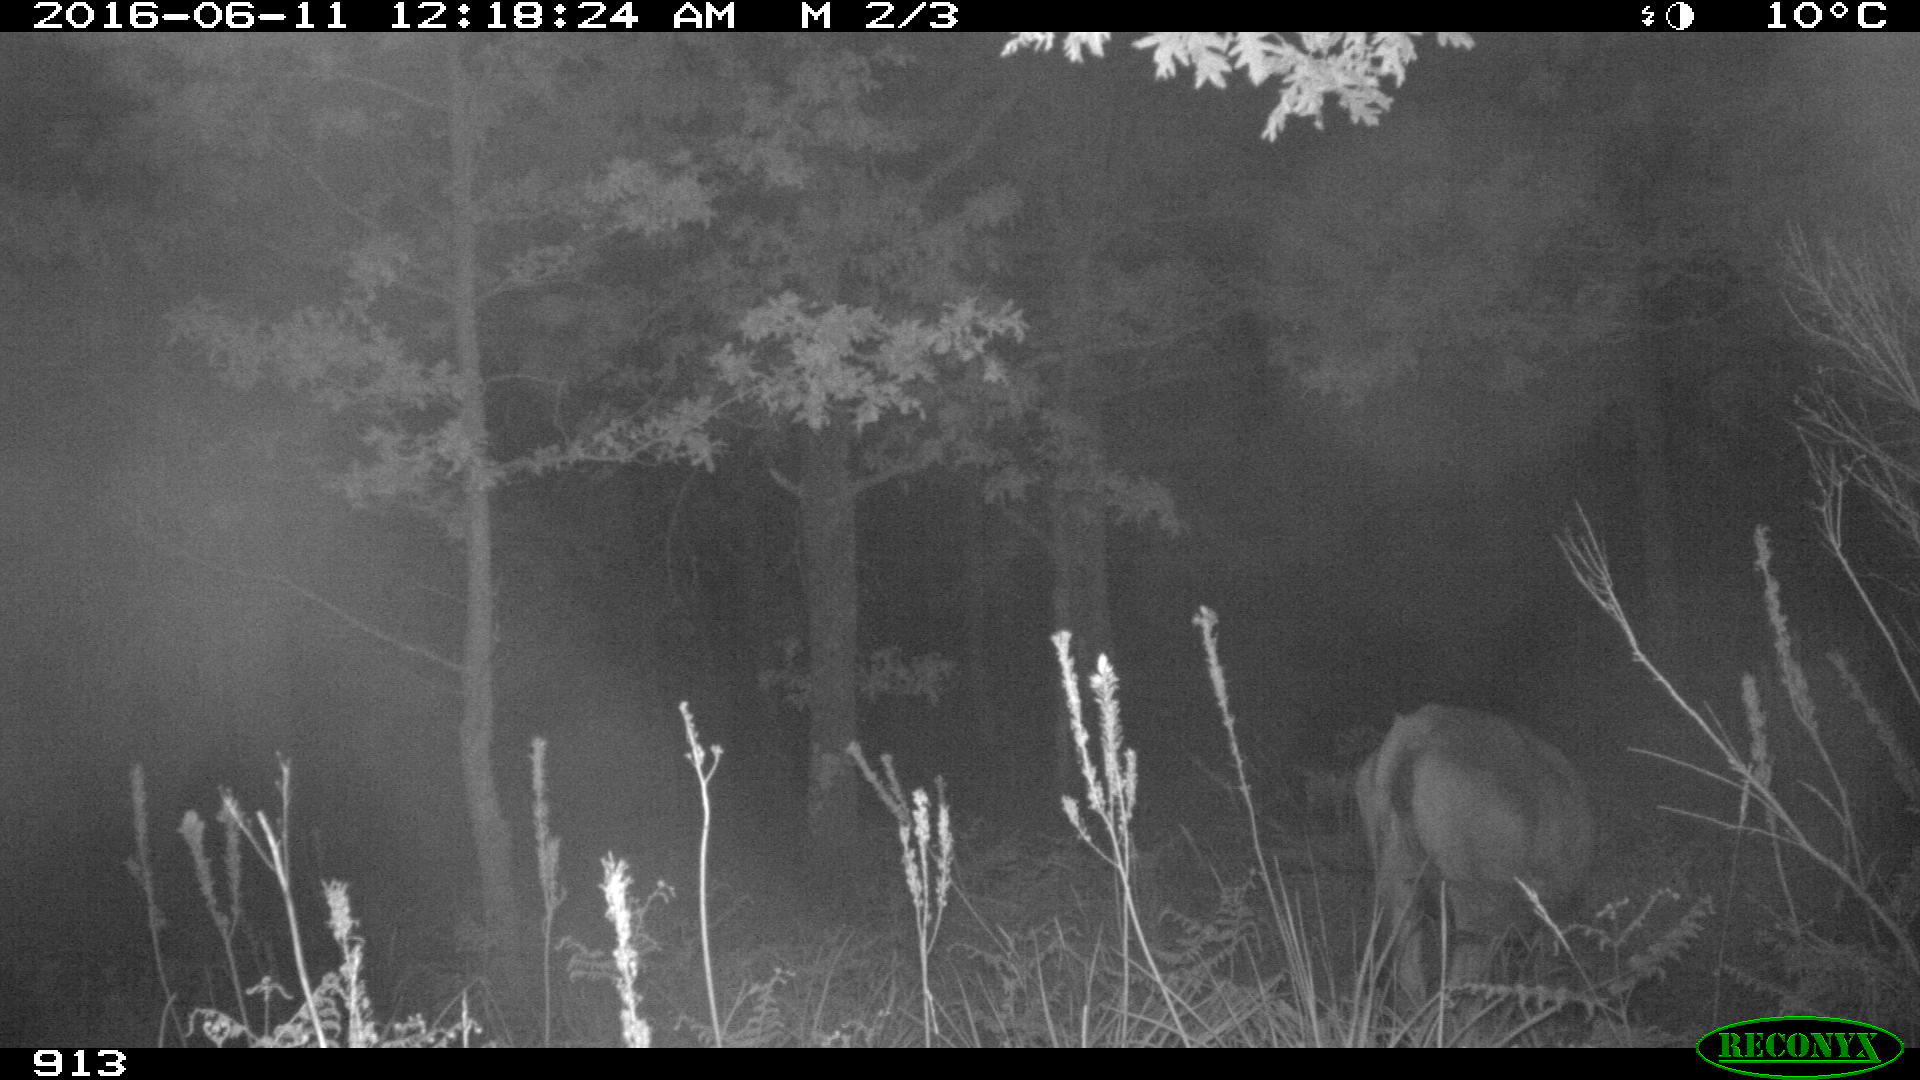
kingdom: Animalia
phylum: Chordata
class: Mammalia
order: Artiodactyla
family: Bovidae
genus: Bos
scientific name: Bos taurus
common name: Domesticated cattle
